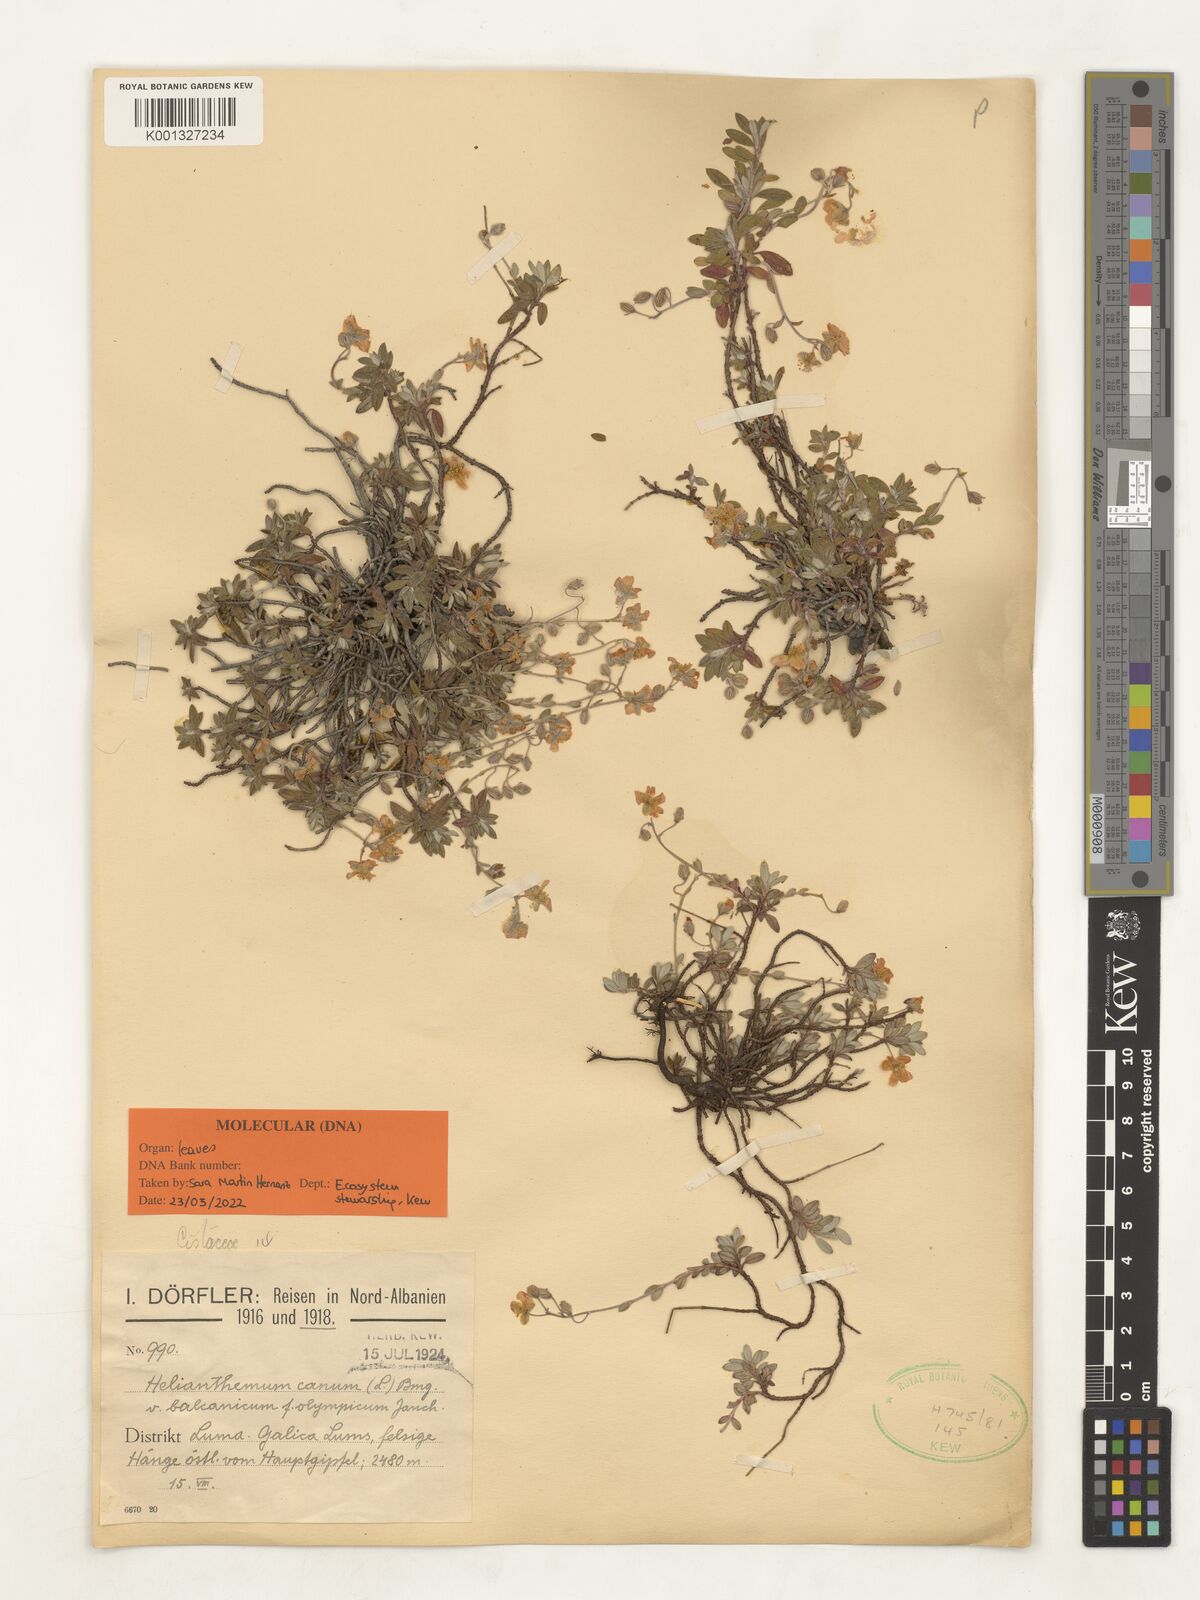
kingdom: Plantae
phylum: Tracheophyta
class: Magnoliopsida
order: Malvales
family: Cistaceae
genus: Helianthemum
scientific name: Helianthemum canum
